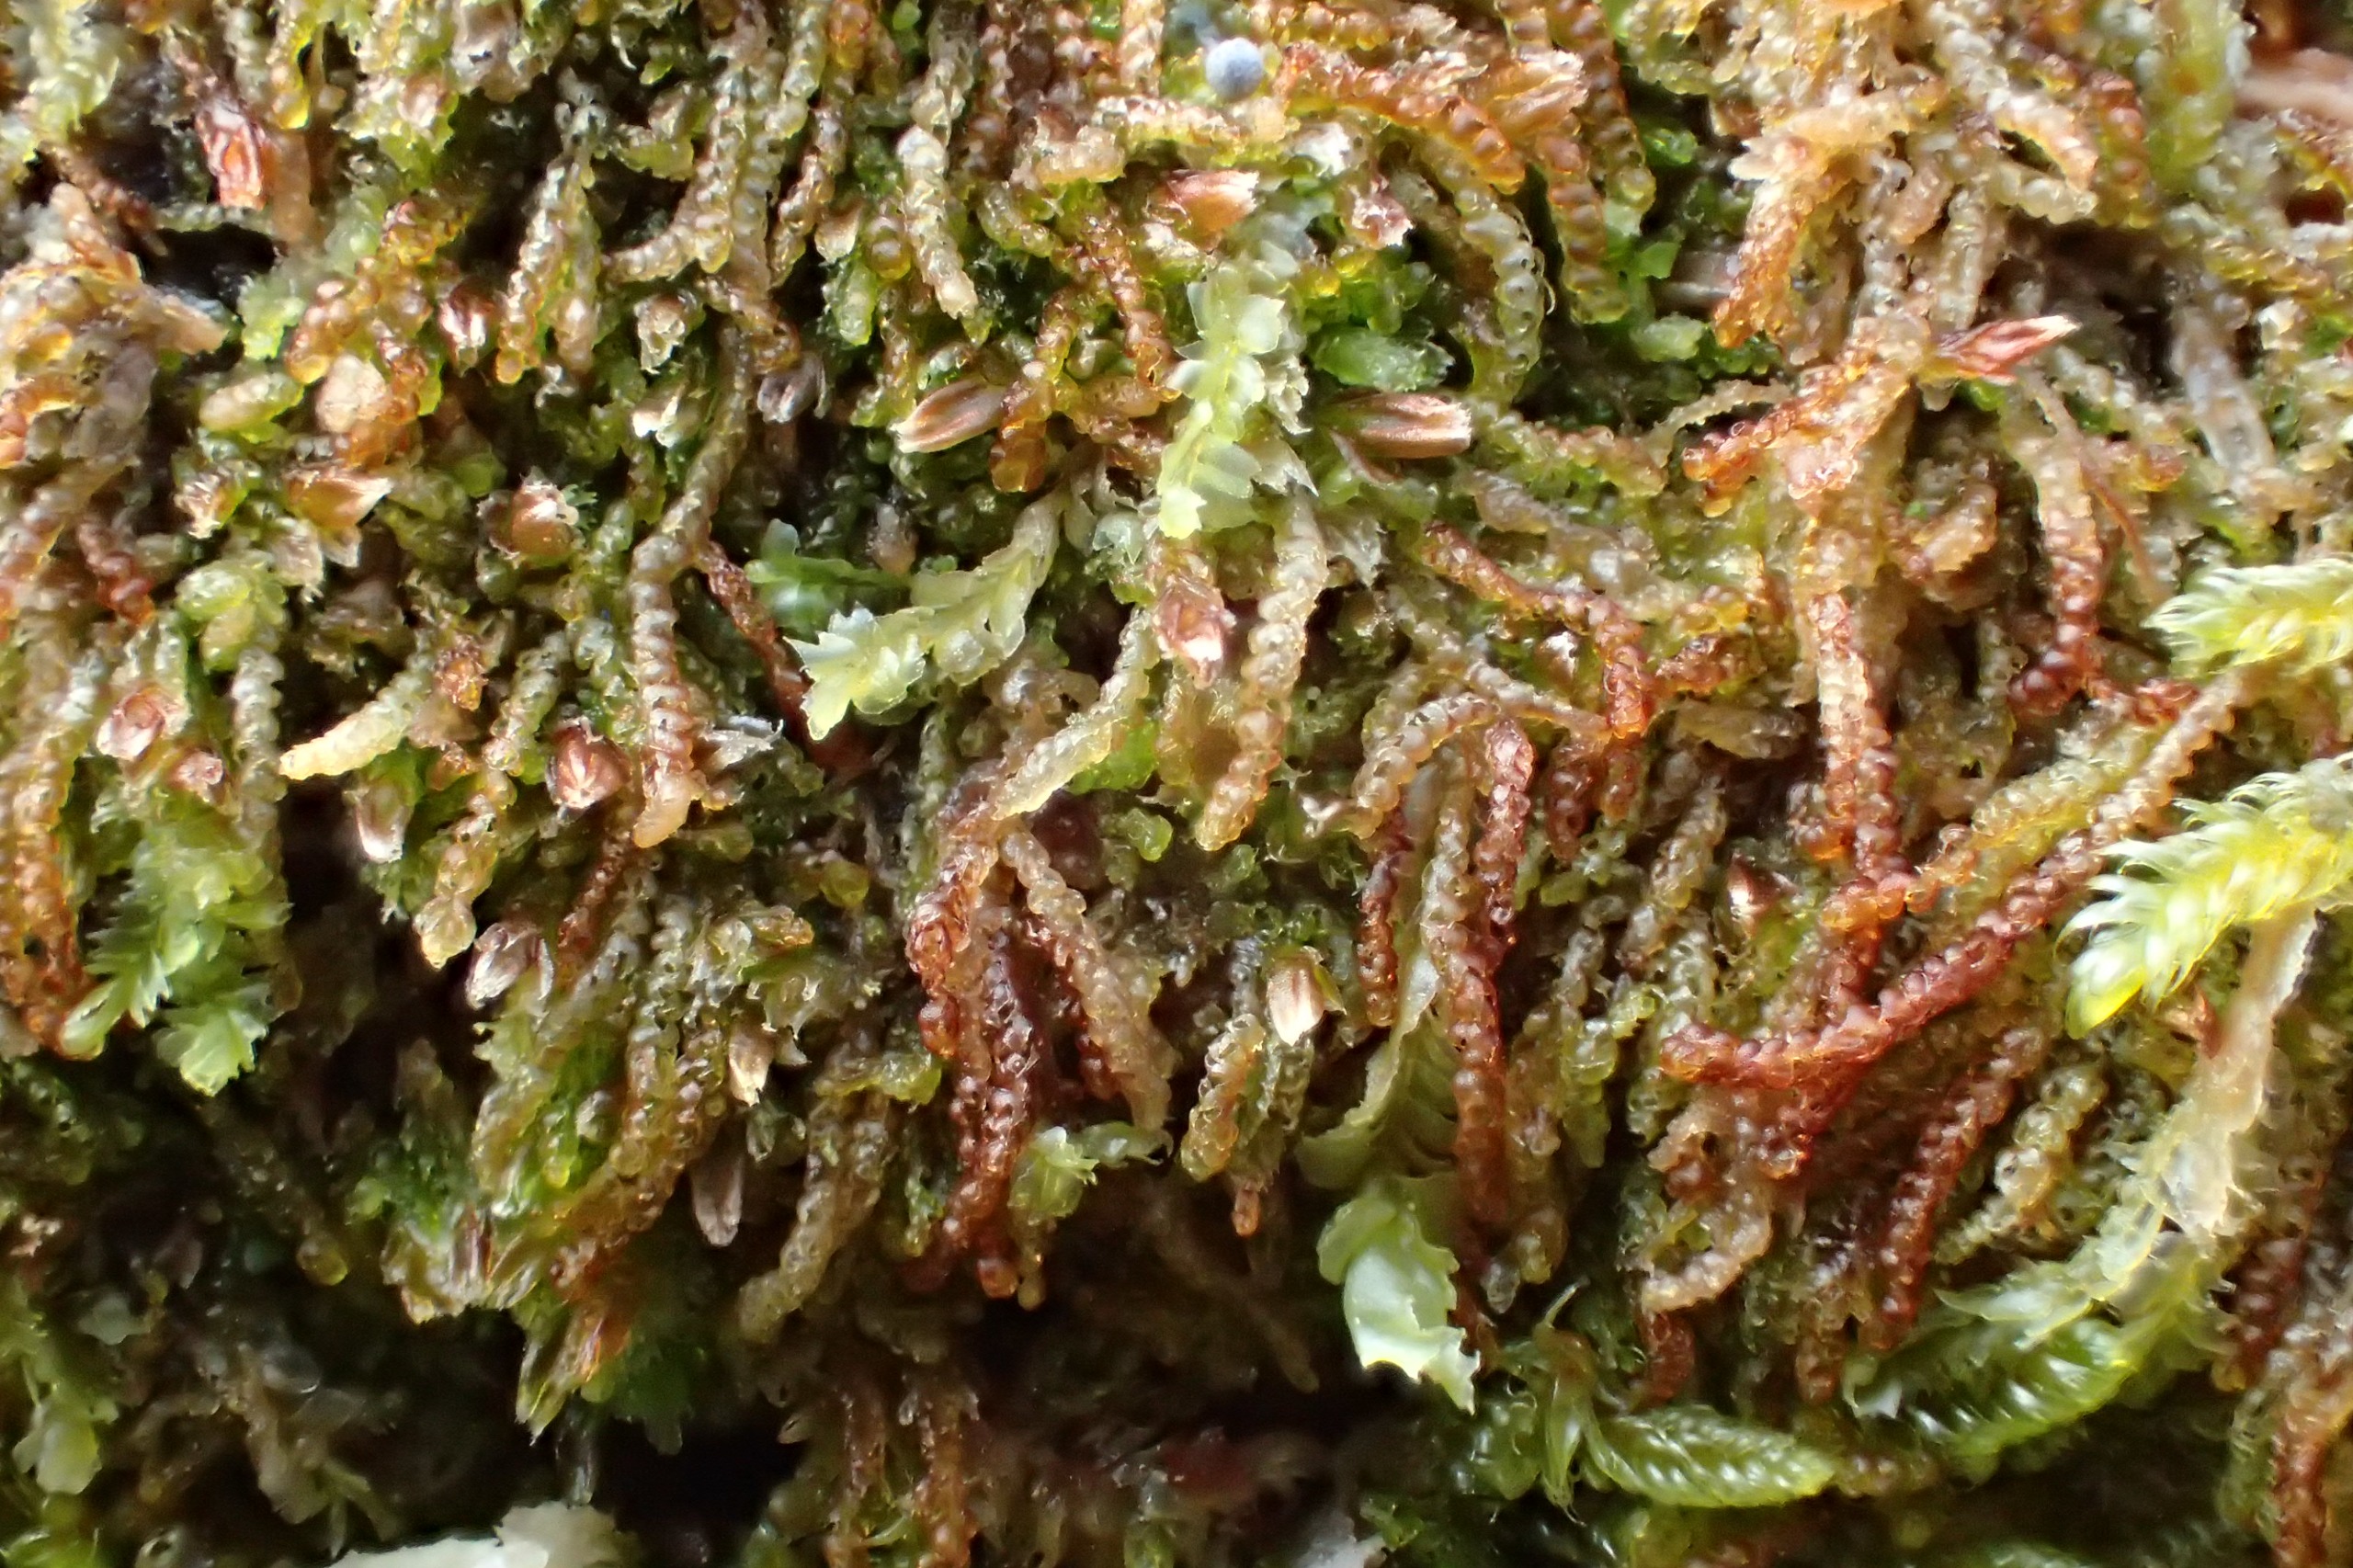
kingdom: Plantae
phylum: Marchantiophyta
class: Jungermanniopsida
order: Jungermanniales
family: Cephaloziaceae
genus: Nowellia
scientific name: Nowellia curvifolia
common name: Krumbladet stødmos
